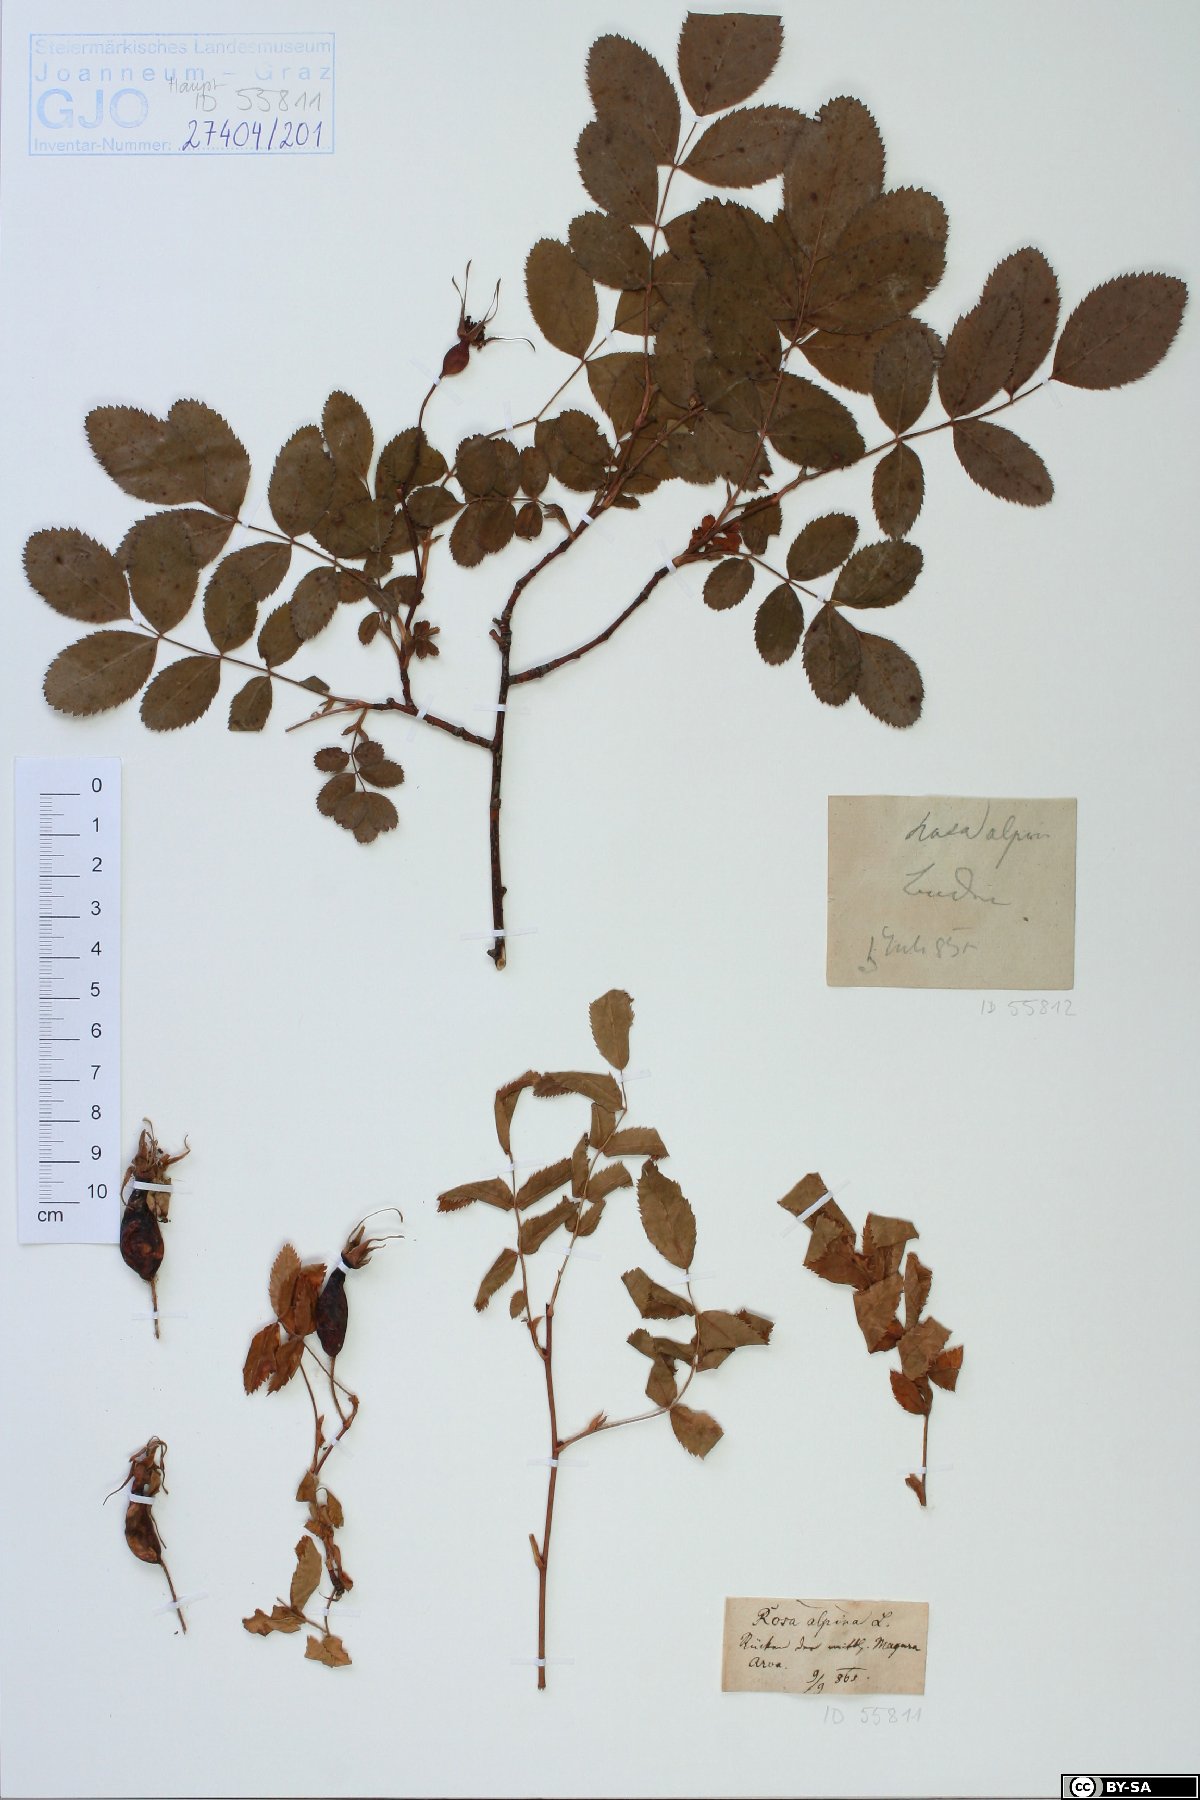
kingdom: Plantae
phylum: Tracheophyta
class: Magnoliopsida
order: Rosales
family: Rosaceae
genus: Rosa
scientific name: Rosa pendulina
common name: Alpine rose
